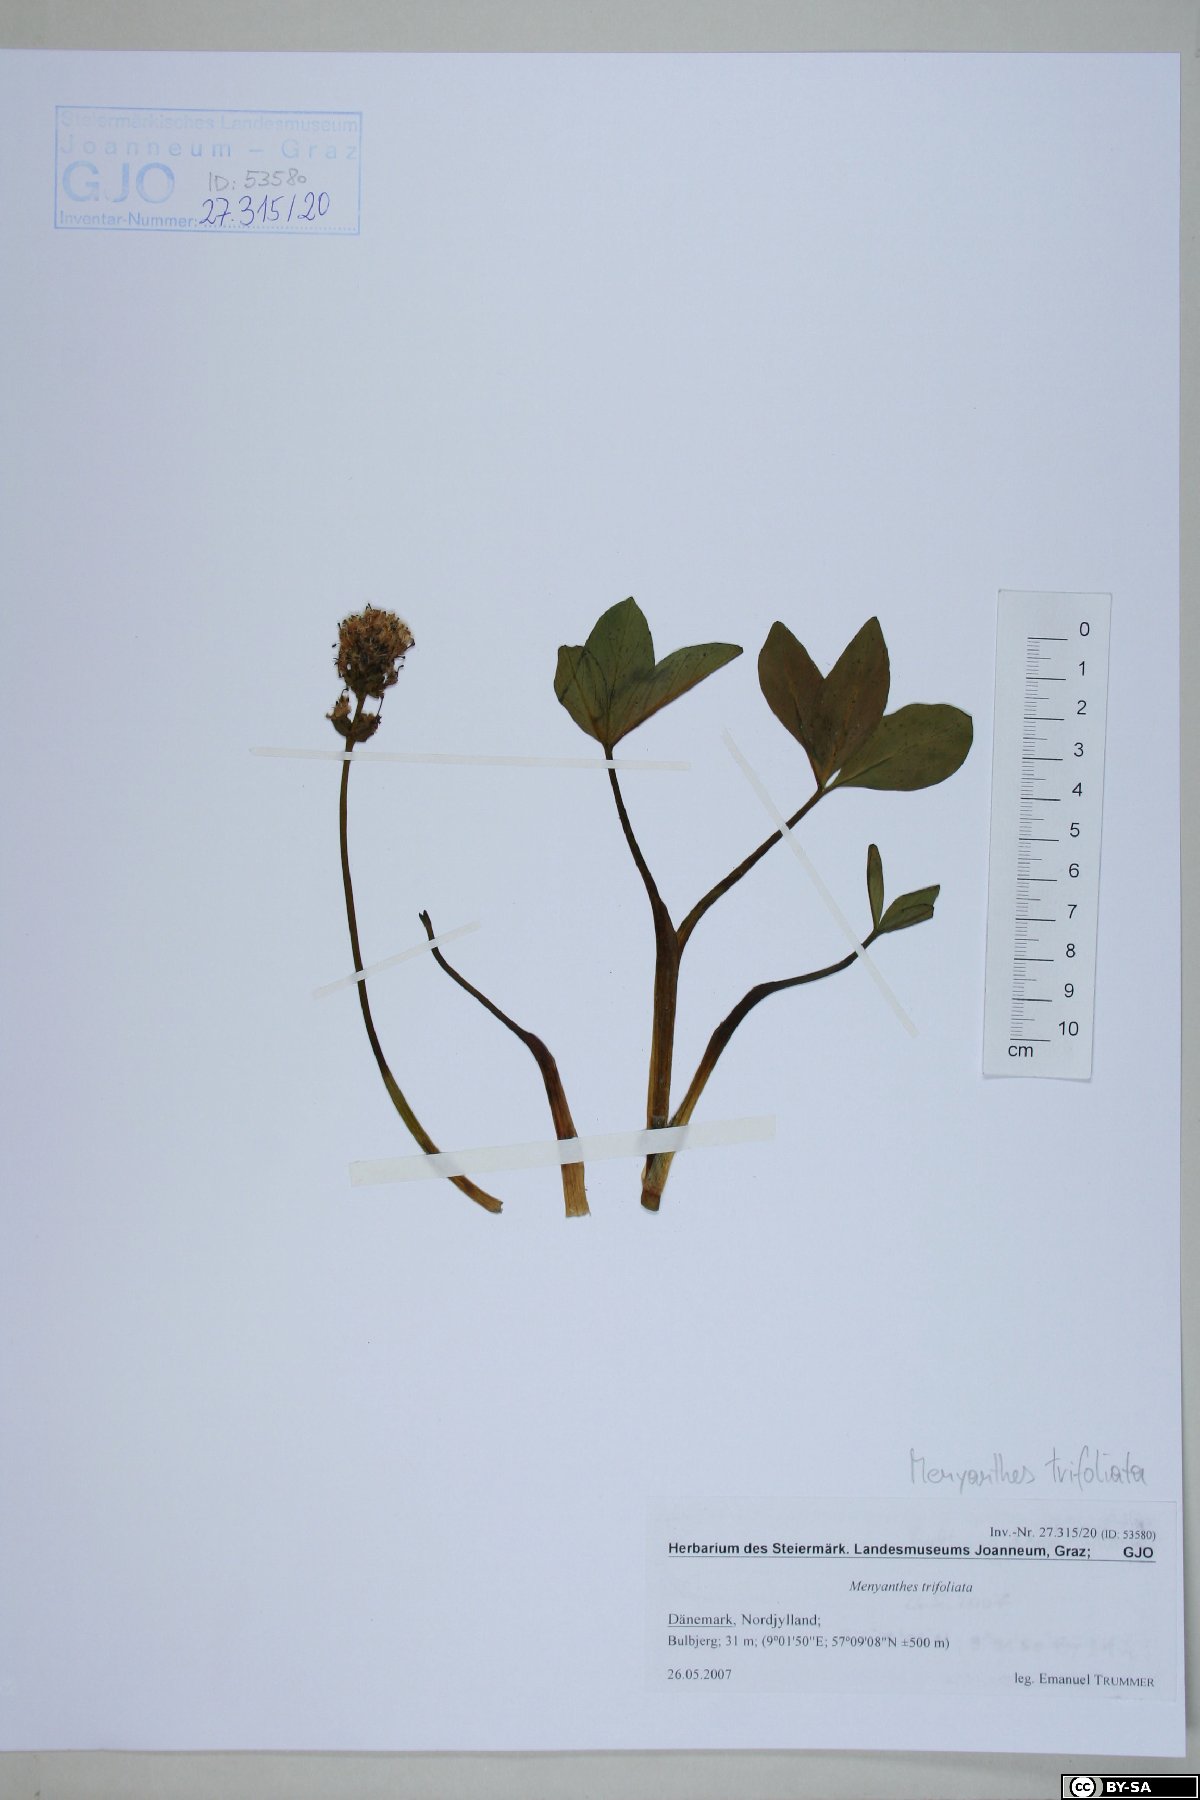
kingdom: Plantae
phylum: Tracheophyta
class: Magnoliopsida
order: Asterales
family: Menyanthaceae
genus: Menyanthes
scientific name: Menyanthes trifoliata
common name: Bogbean
